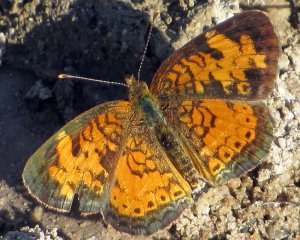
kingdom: Animalia
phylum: Arthropoda
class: Insecta
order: Lepidoptera
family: Nymphalidae
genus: Phyciodes
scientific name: Phyciodes tharos
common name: Northern Crescent
